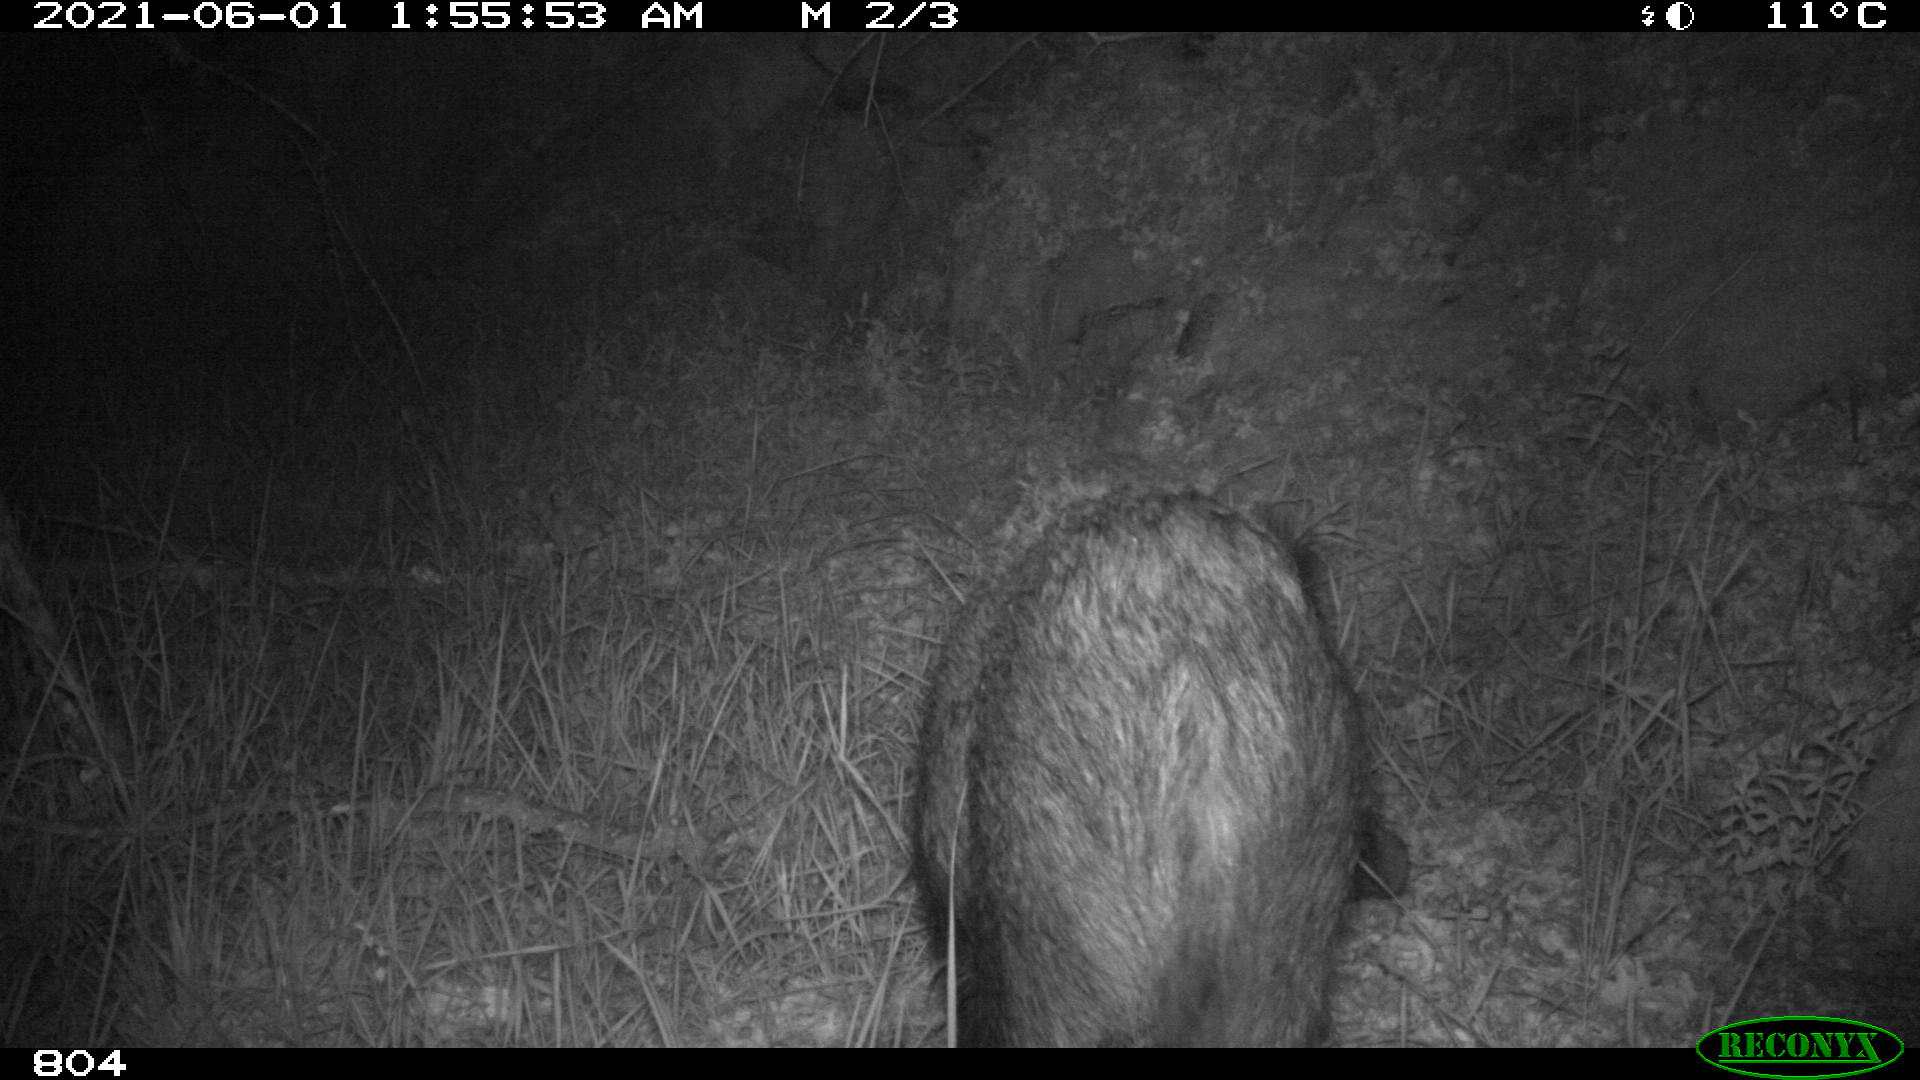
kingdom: Animalia
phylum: Chordata
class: Mammalia
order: Artiodactyla
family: Suidae
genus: Sus
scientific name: Sus scrofa
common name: Wild boar
